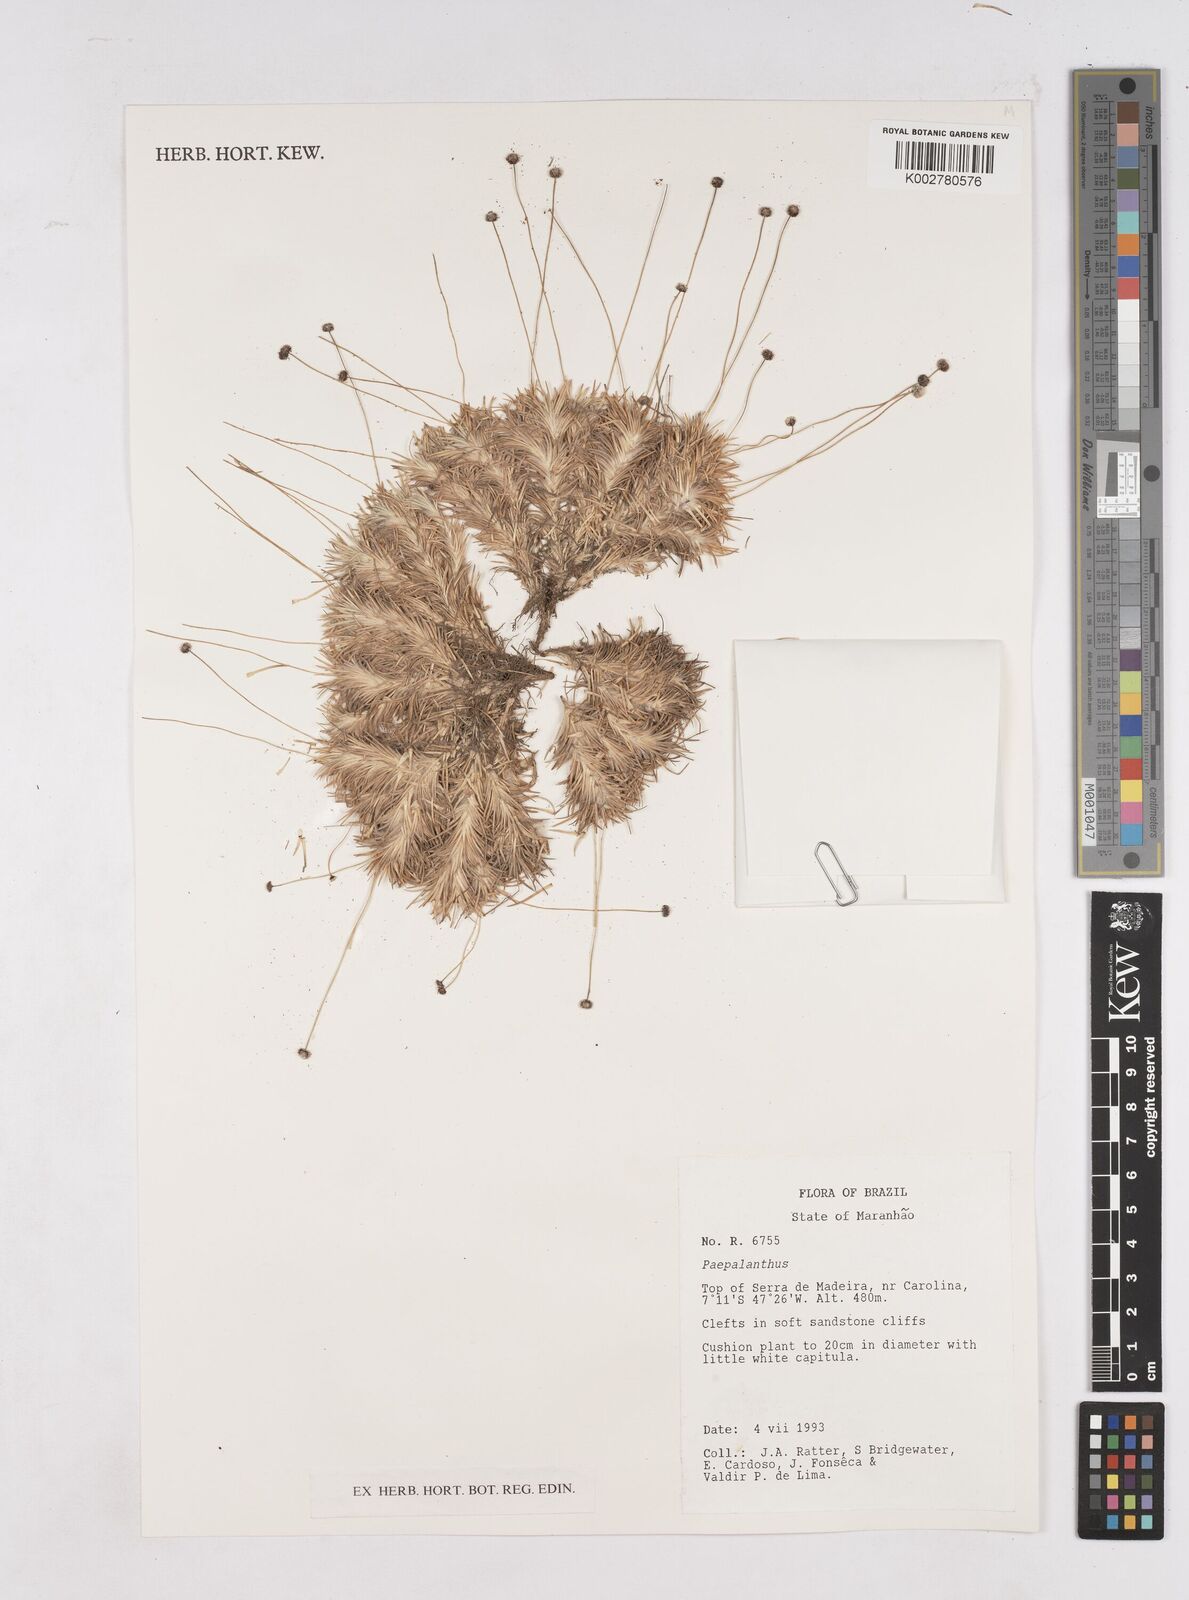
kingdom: Plantae
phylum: Tracheophyta
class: Liliopsida
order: Poales
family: Eriocaulaceae
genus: Paepalanthus
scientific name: Paepalanthus polytrichoides
